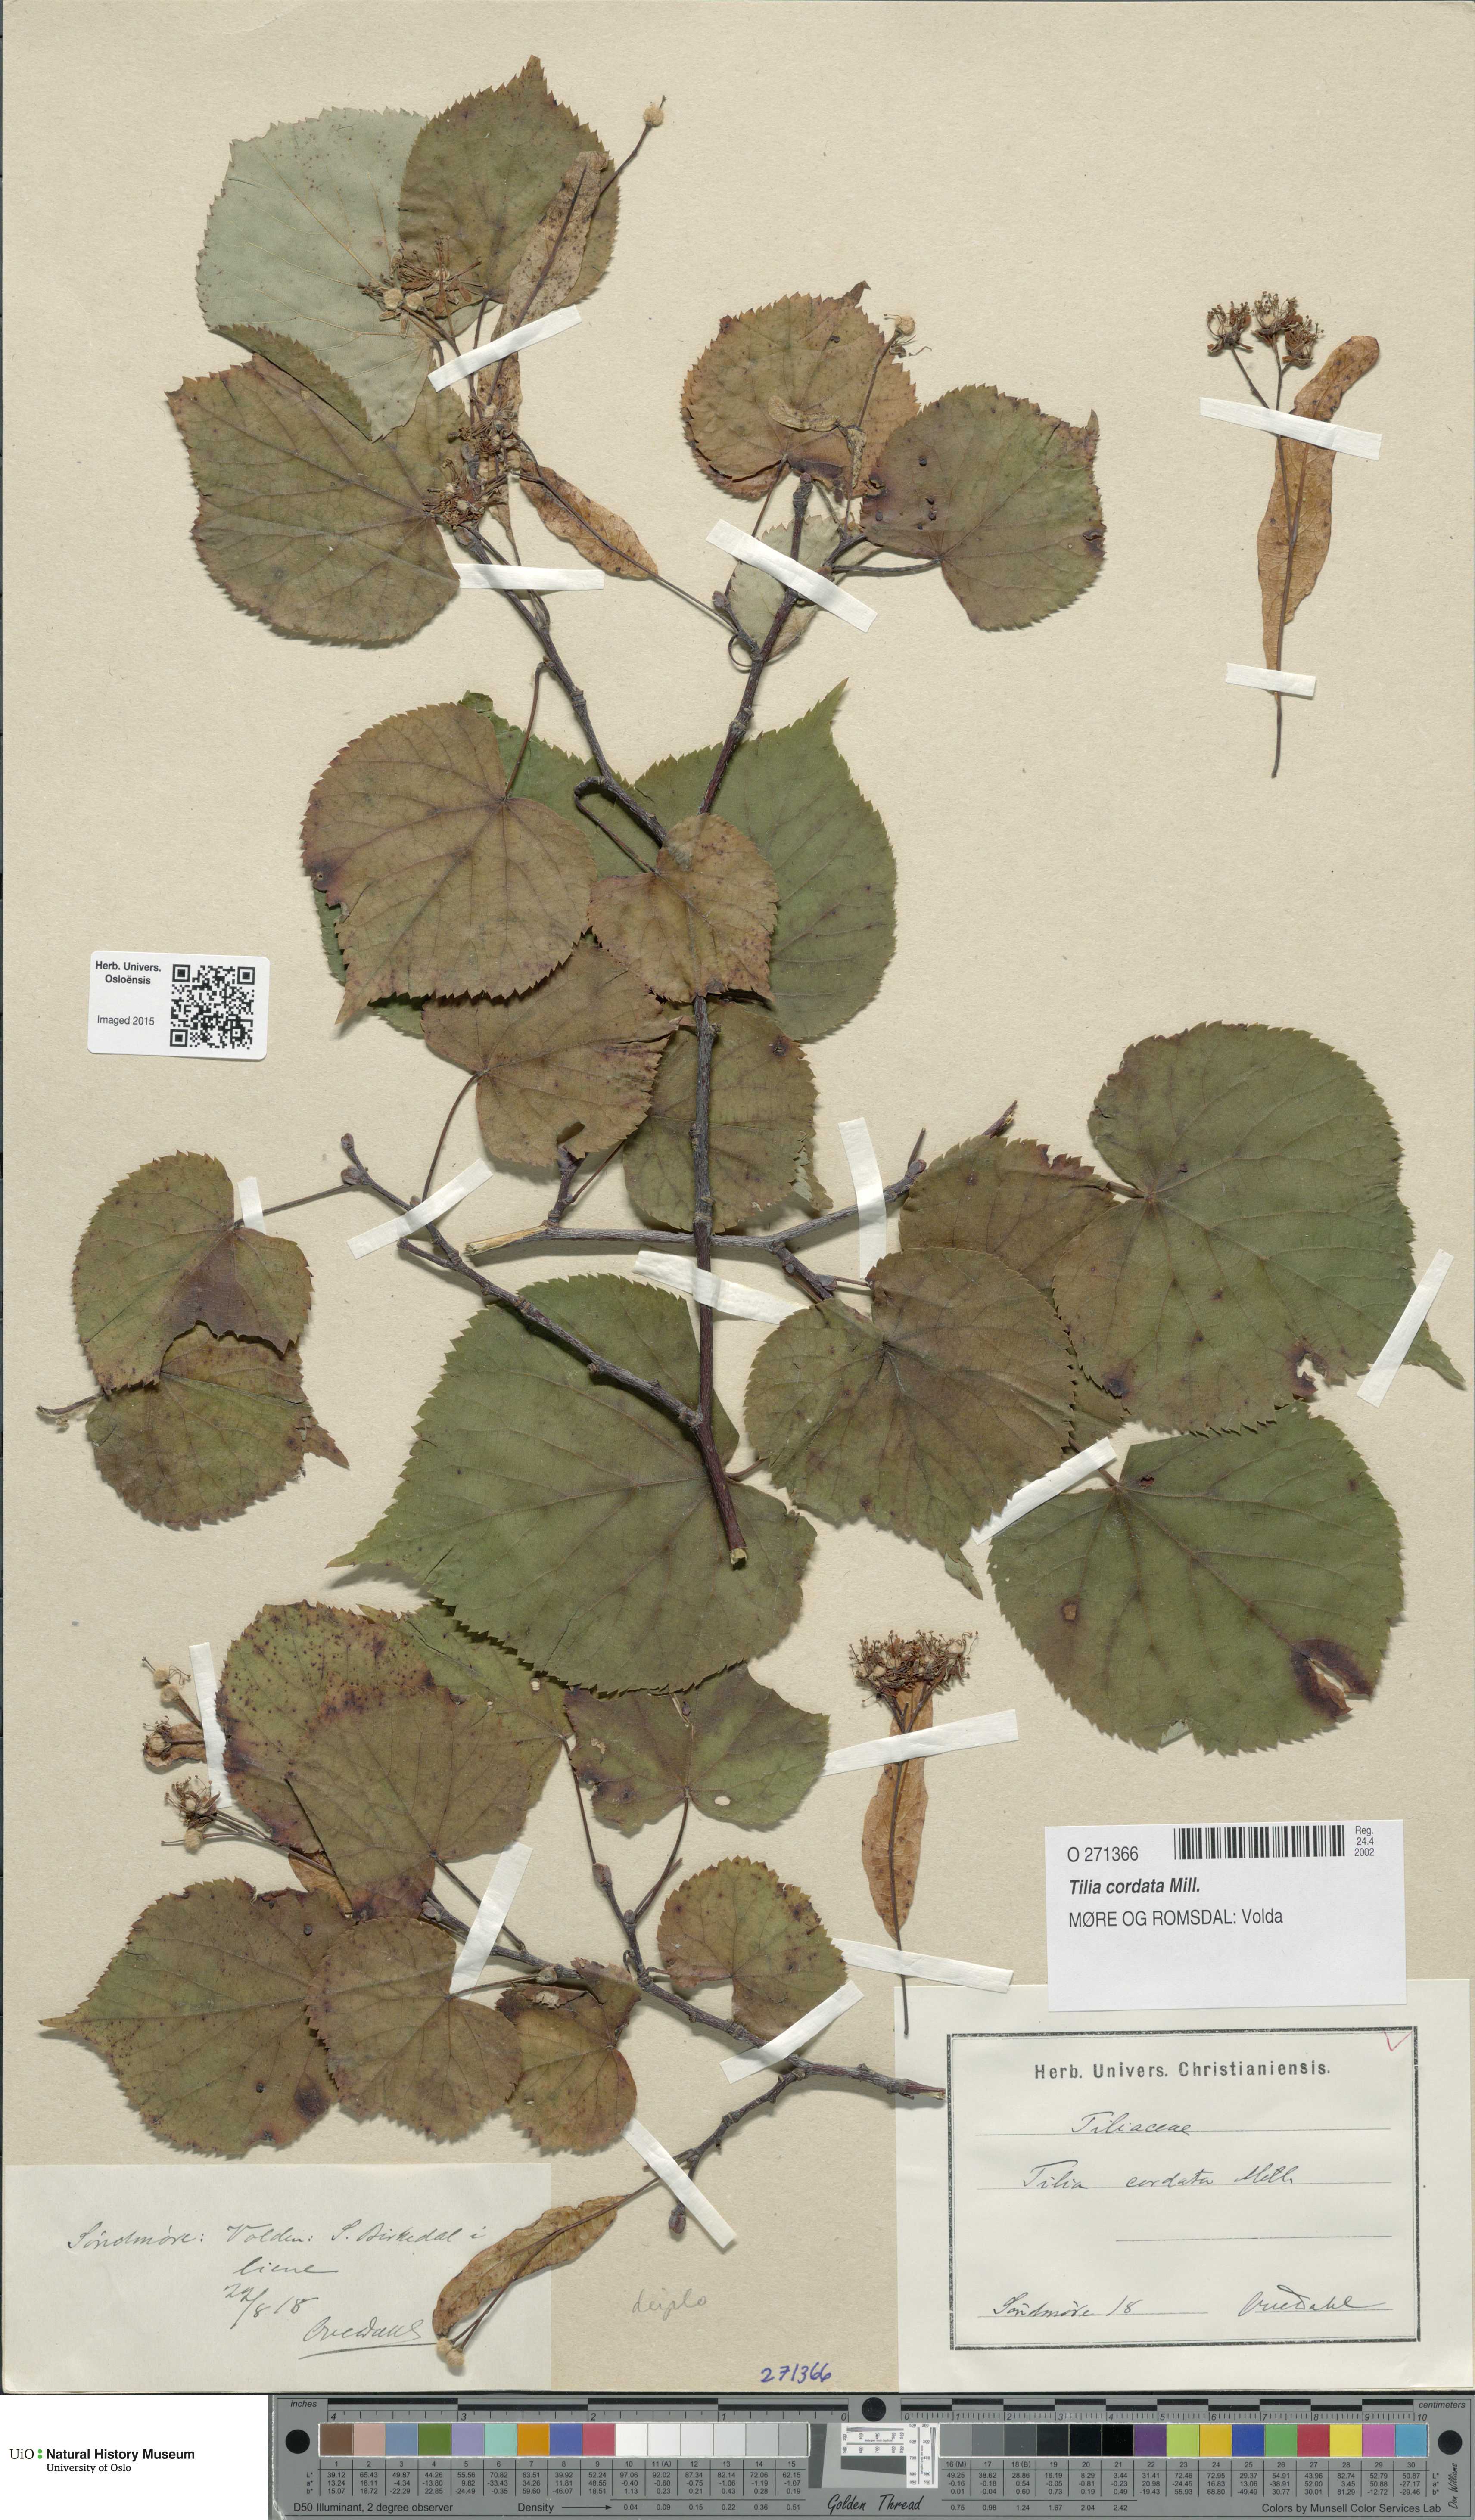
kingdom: Plantae
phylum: Tracheophyta
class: Magnoliopsida
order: Malvales
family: Malvaceae
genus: Tilia
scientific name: Tilia cordata
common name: Small-leaved lime
